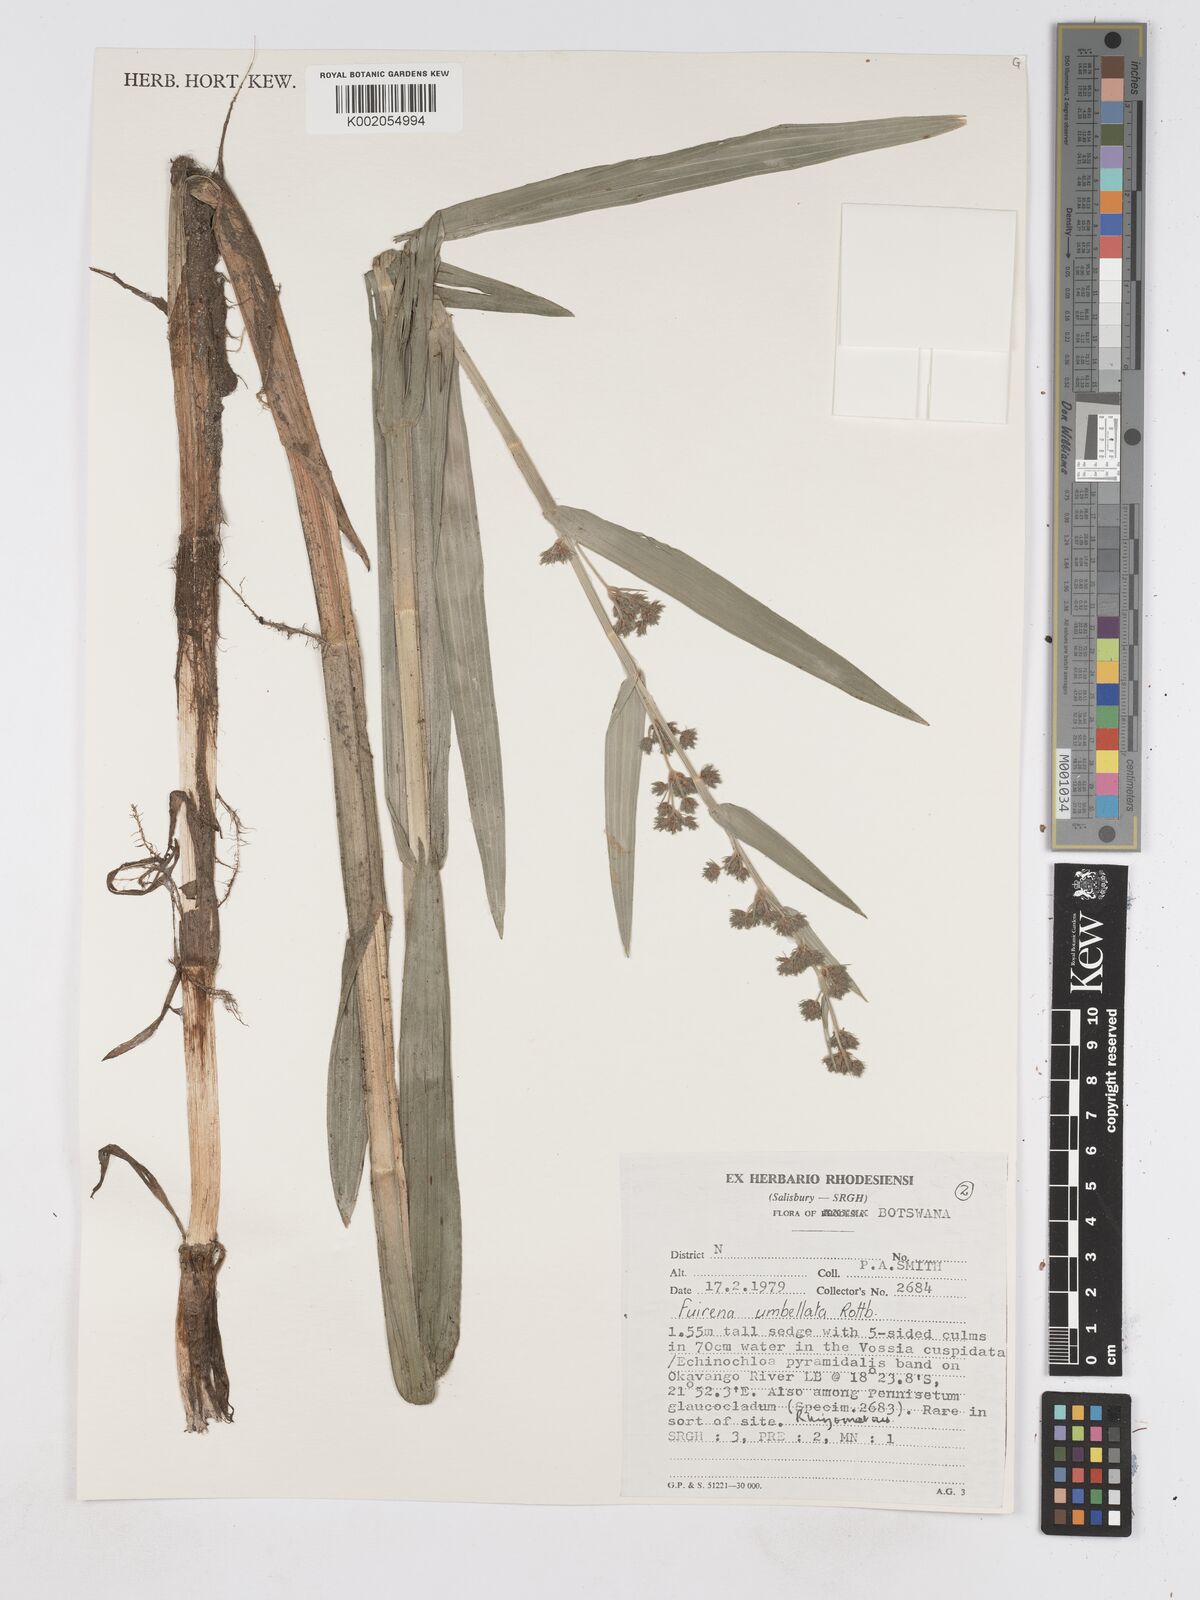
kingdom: Plantae
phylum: Tracheophyta
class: Liliopsida
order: Poales
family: Cyperaceae
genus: Fuirena
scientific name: Fuirena umbellata
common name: Yefen
